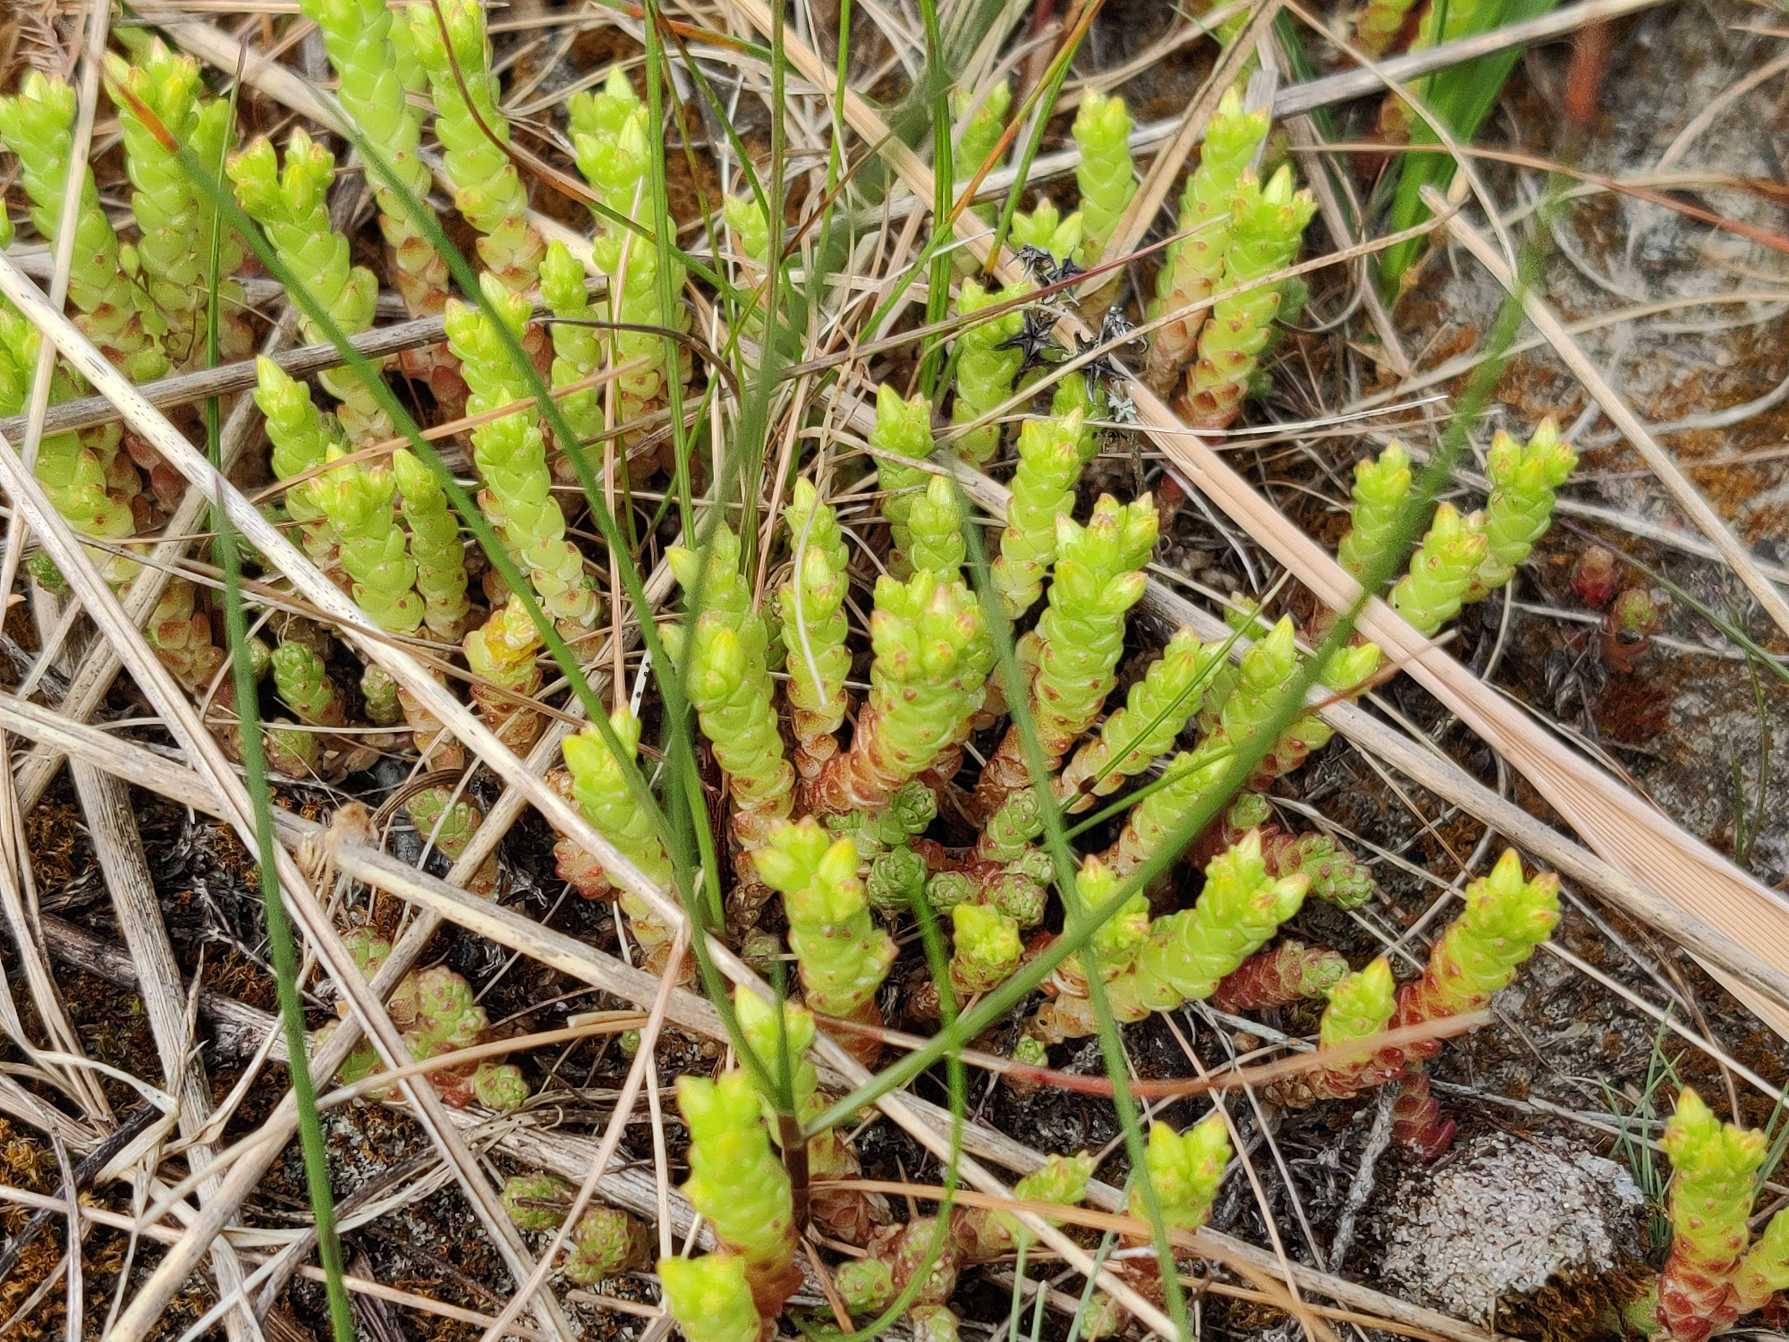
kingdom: Plantae
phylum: Tracheophyta
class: Magnoliopsida
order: Saxifragales
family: Crassulaceae
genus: Sedum
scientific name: Sedum acre
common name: Bidende stenurt
